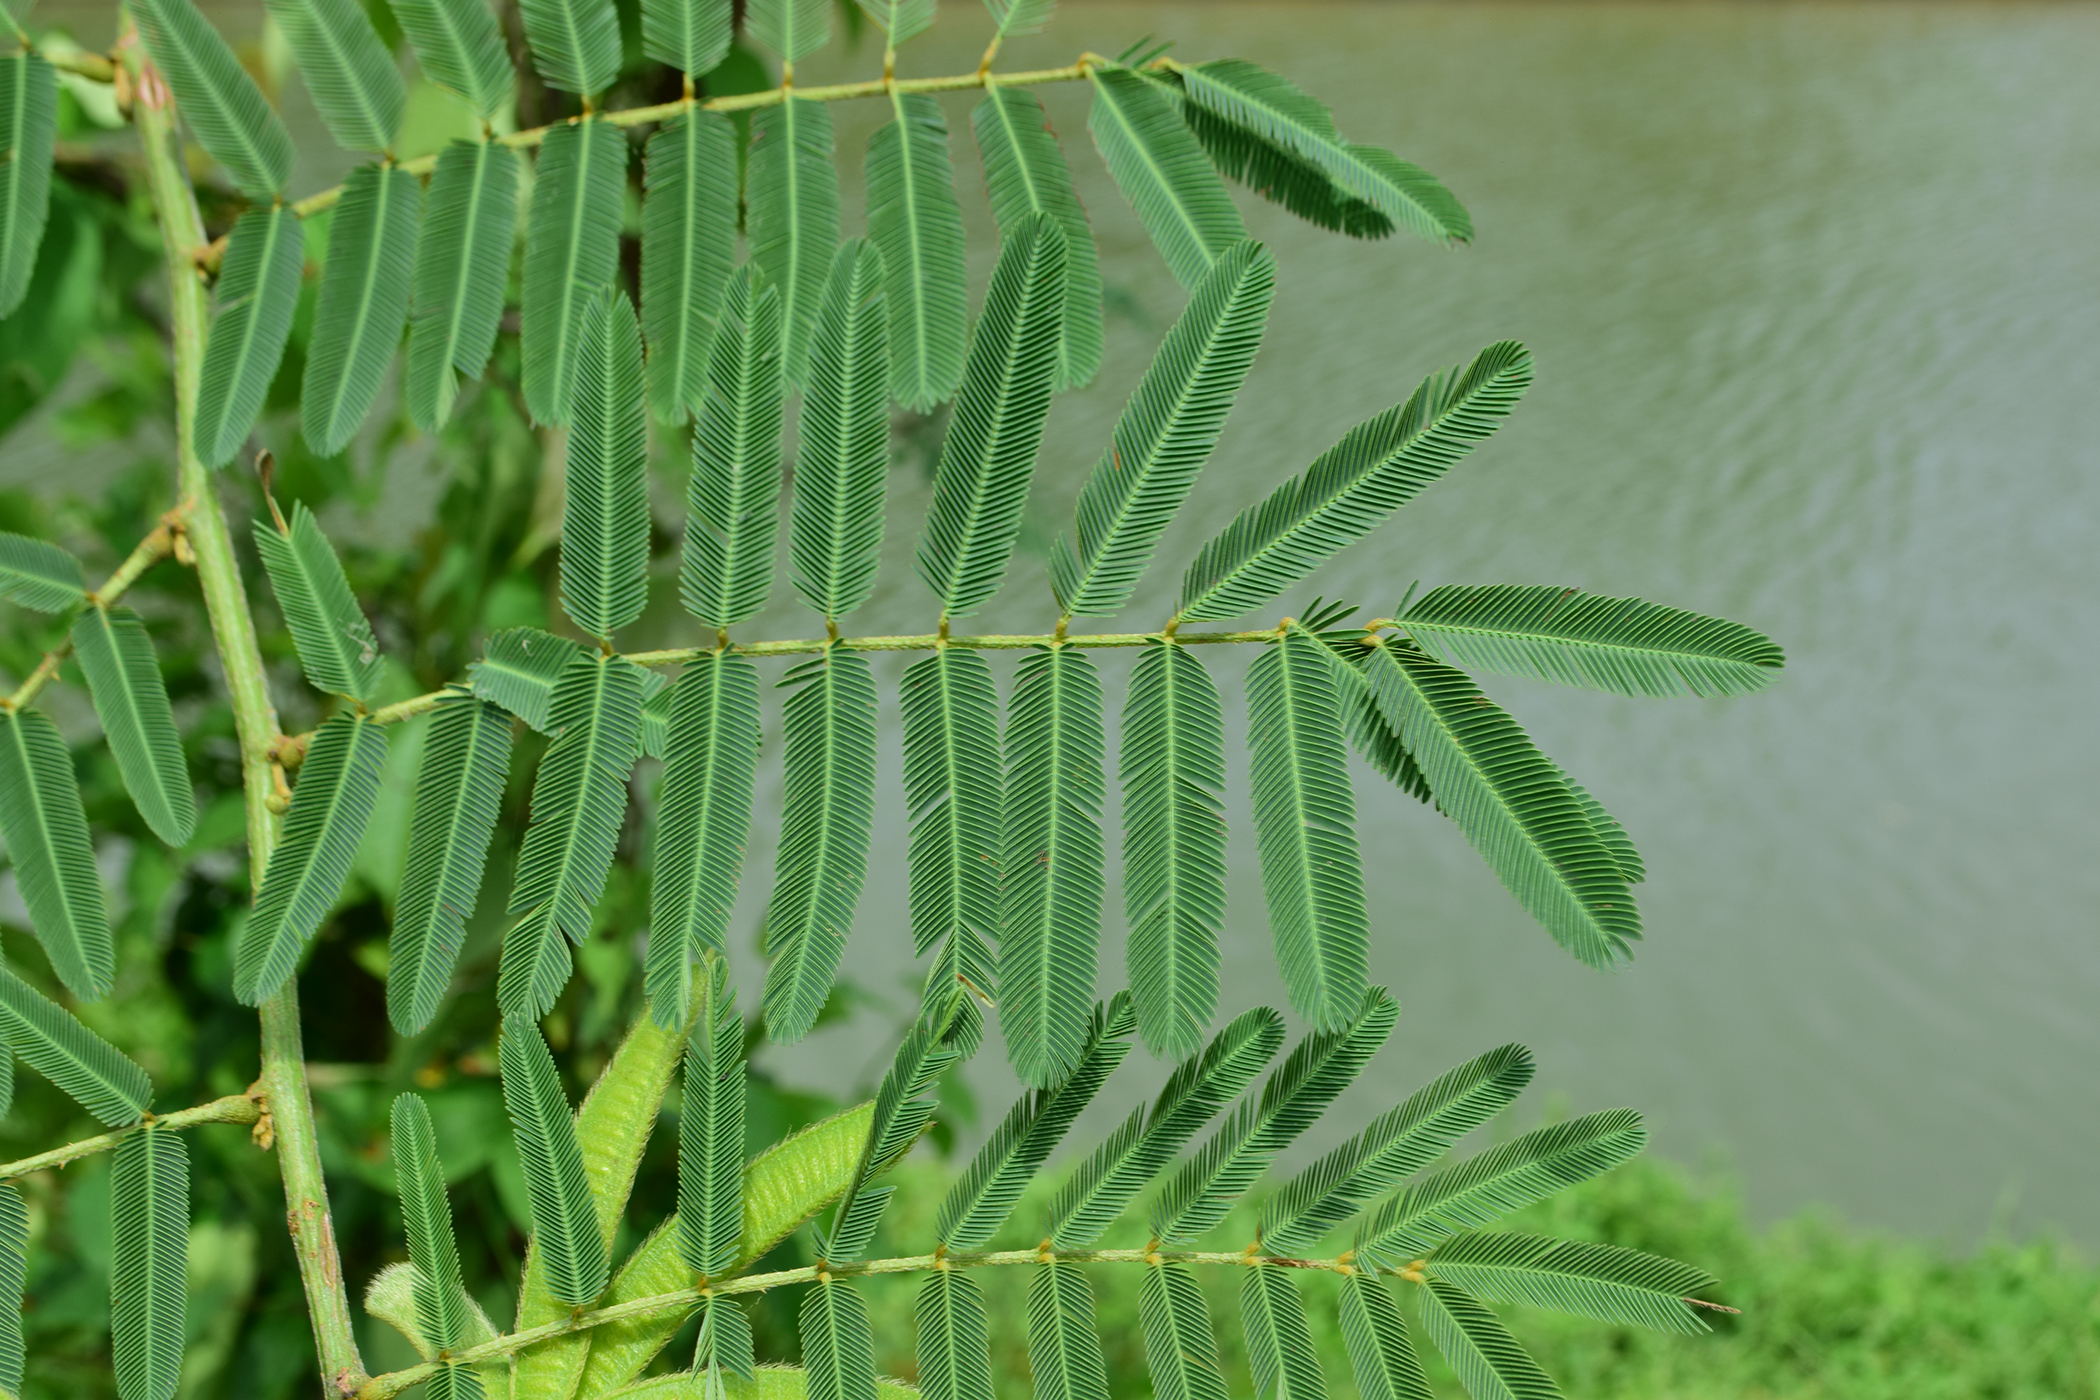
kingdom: Plantae
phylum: Tracheophyta
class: Magnoliopsida
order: Fabales
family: Fabaceae
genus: Mimosa
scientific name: Mimosa pigra
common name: Black mimosa
